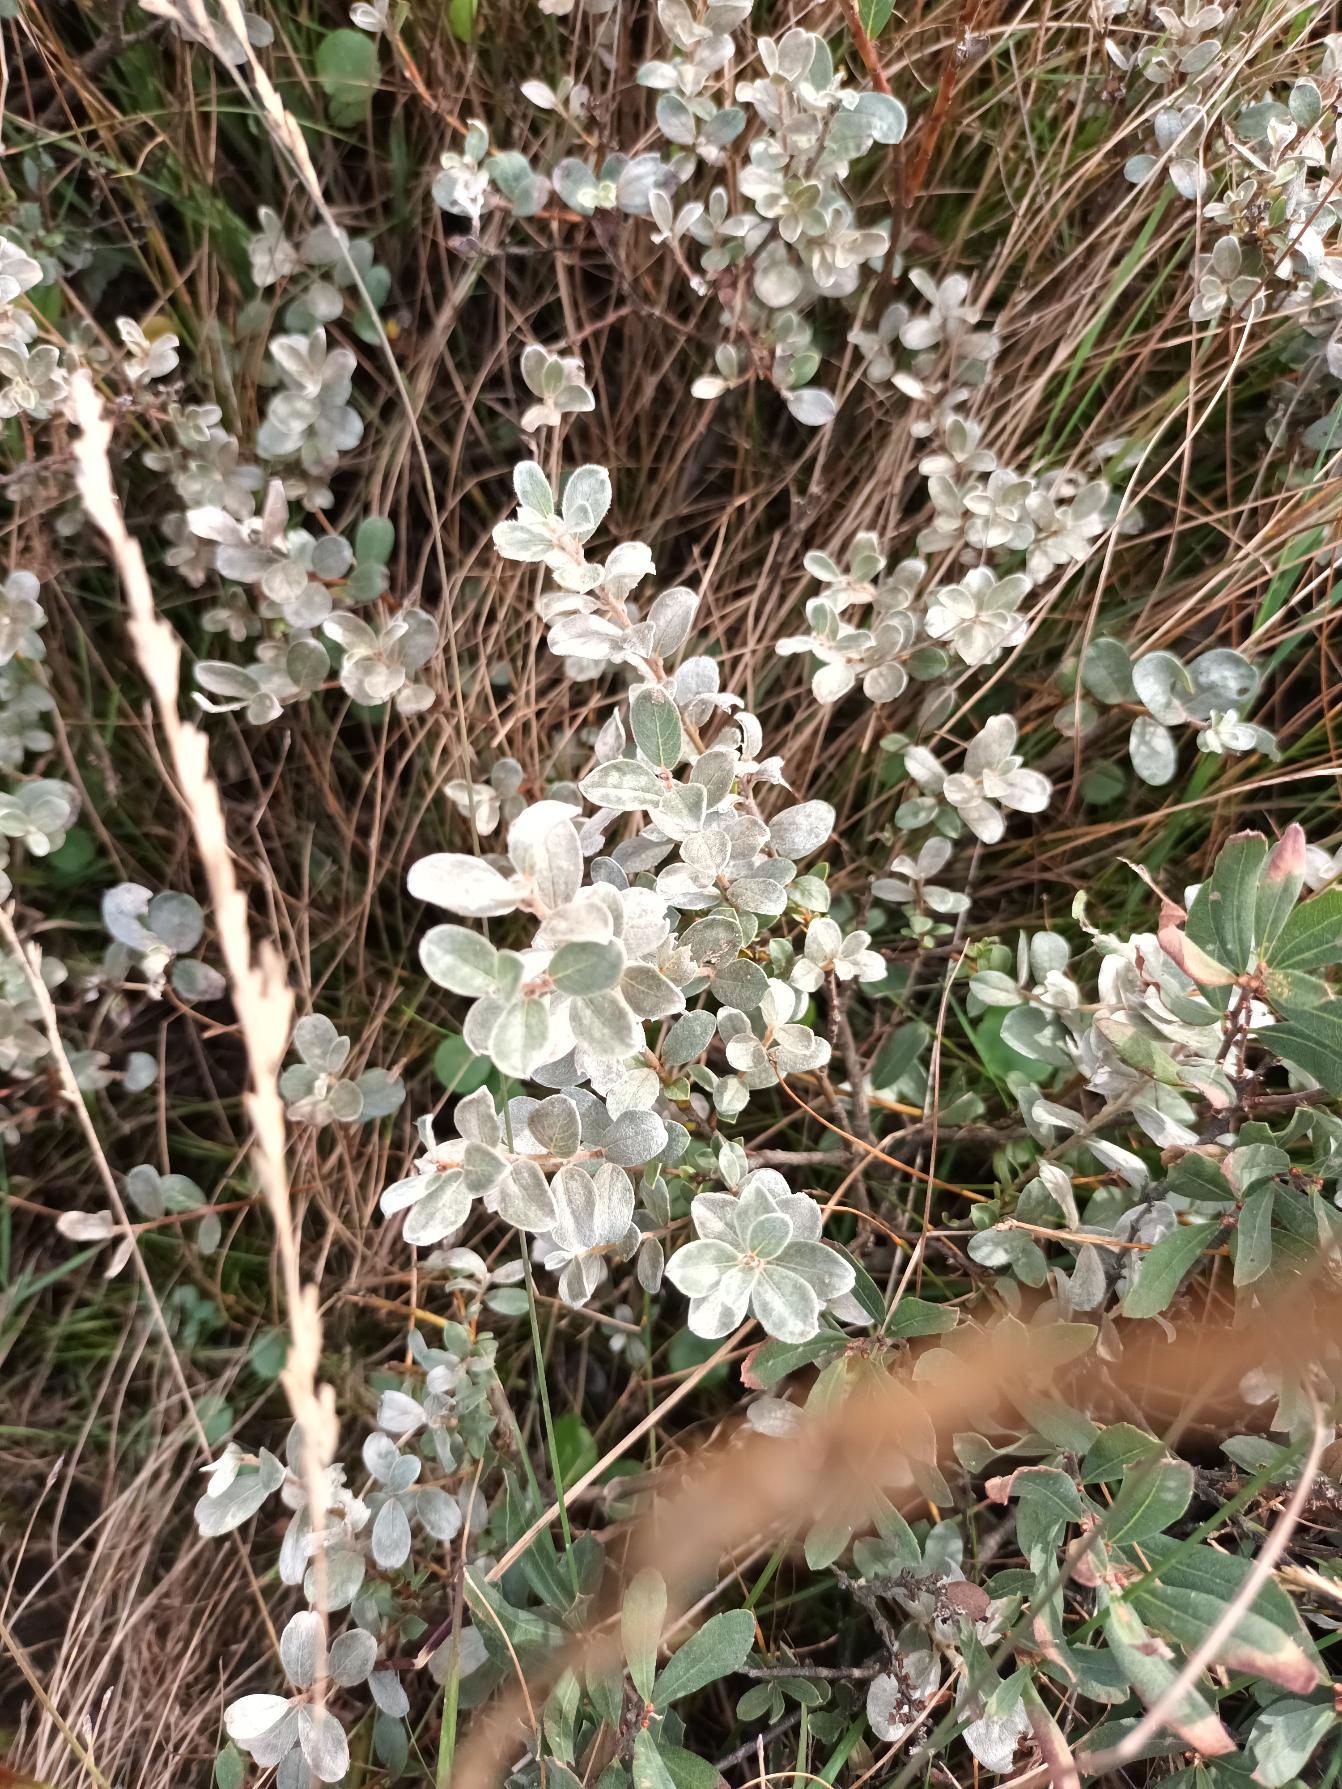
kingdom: Plantae
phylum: Tracheophyta
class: Magnoliopsida
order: Malpighiales
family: Salicaceae
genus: Salix
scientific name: Salix repens
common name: Gråris
